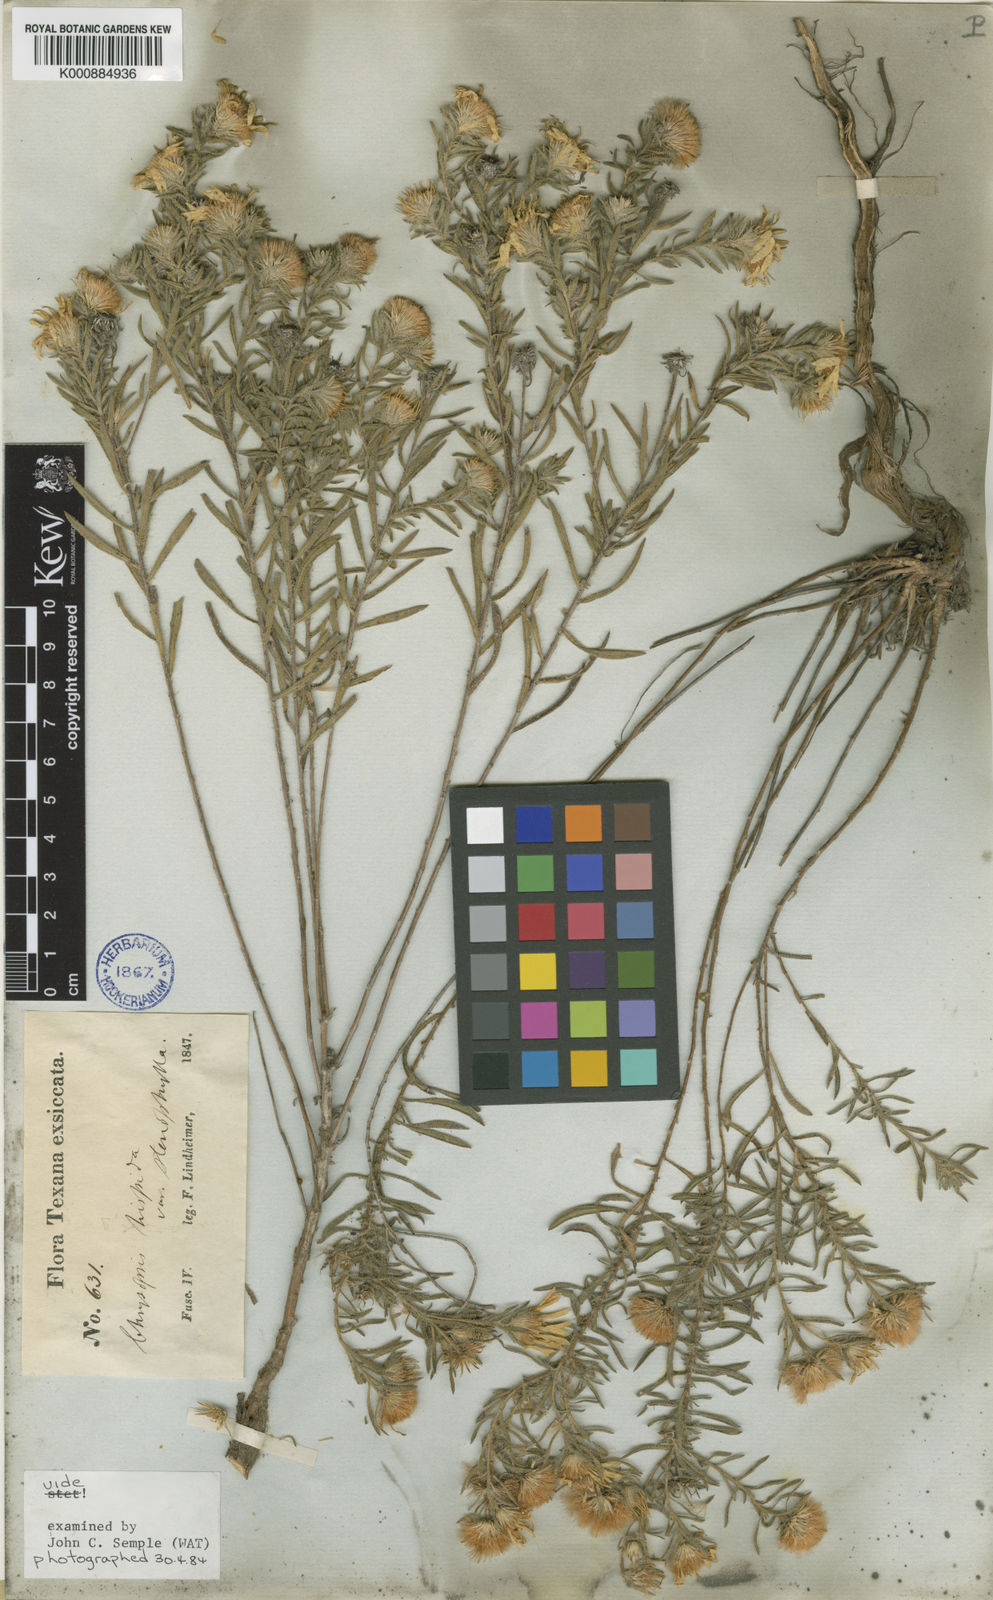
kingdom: Plantae
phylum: Tracheophyta
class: Magnoliopsida
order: Asterales
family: Asteraceae
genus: Heterotheca
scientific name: Heterotheca villosa
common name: Hairy false goldenaster
